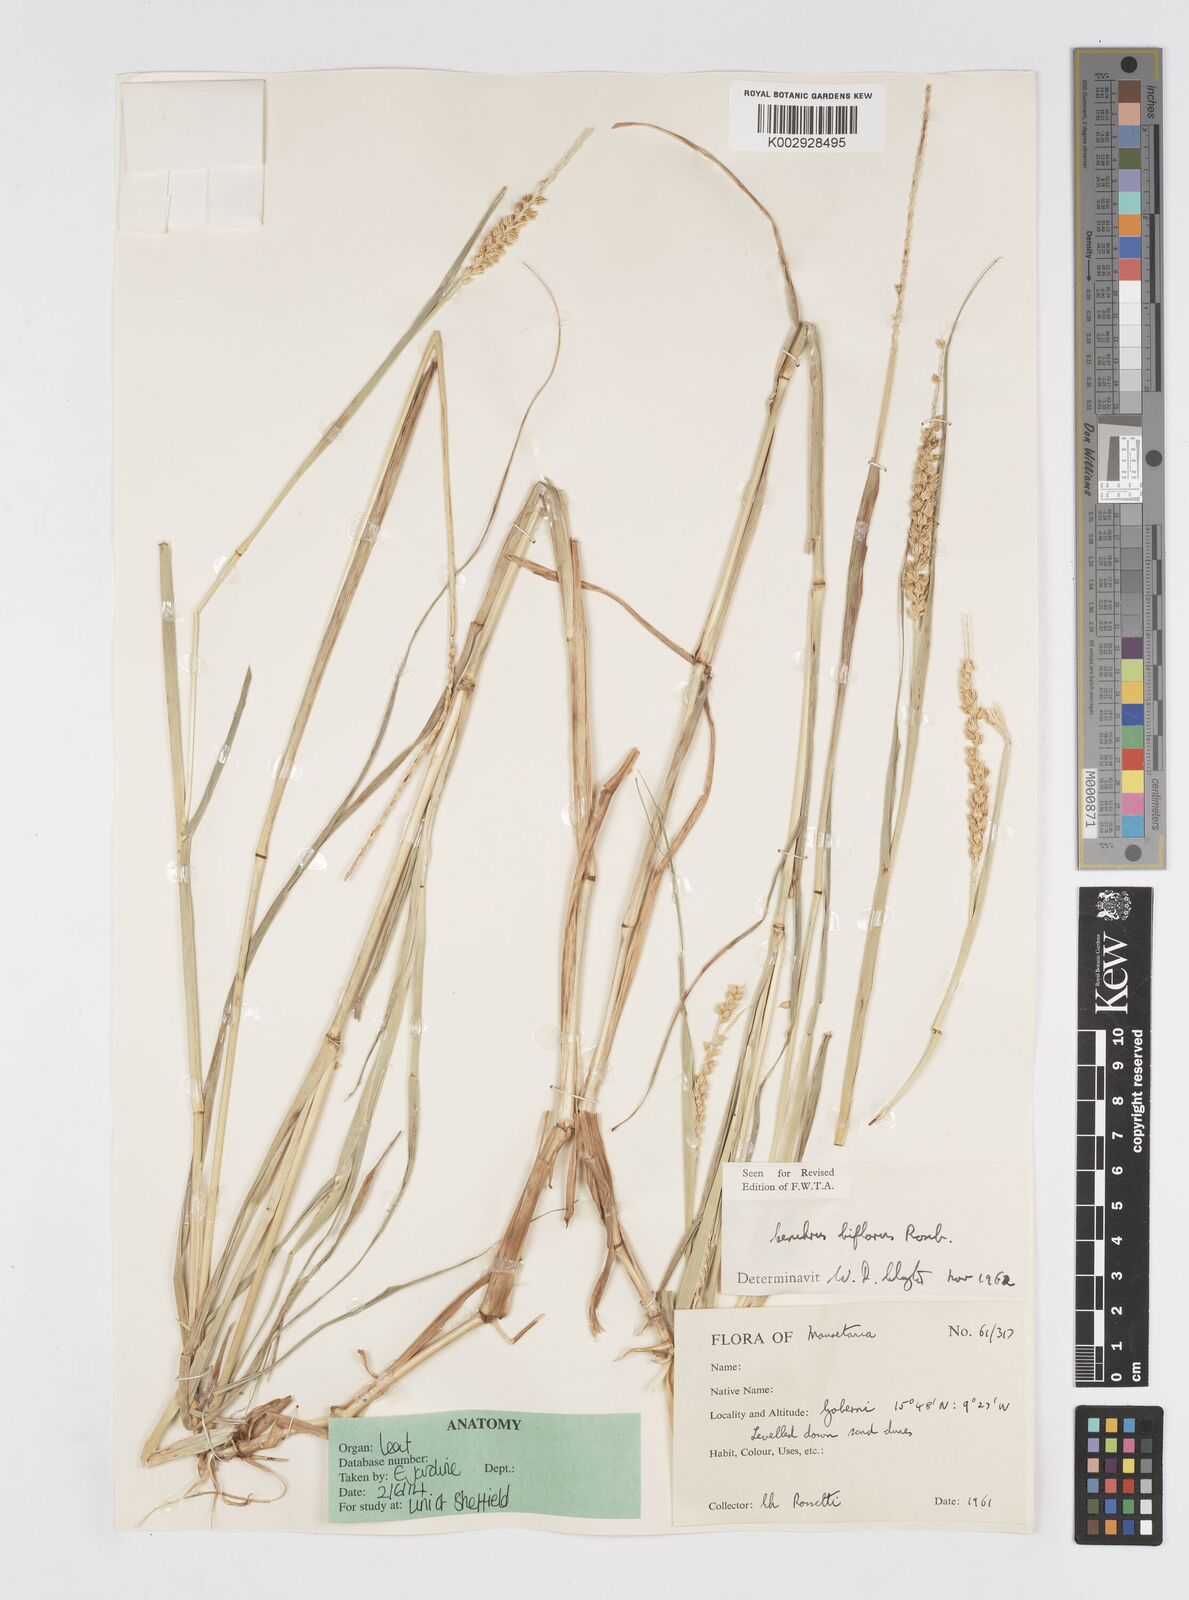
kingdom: Plantae
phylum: Tracheophyta
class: Liliopsida
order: Poales
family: Poaceae
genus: Cenchrus
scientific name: Cenchrus biflorus
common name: Indian sandbur
